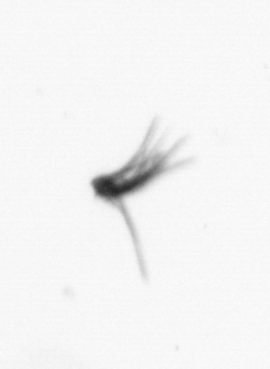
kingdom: Animalia
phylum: Arthropoda
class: Maxillopoda
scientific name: Maxillopoda
